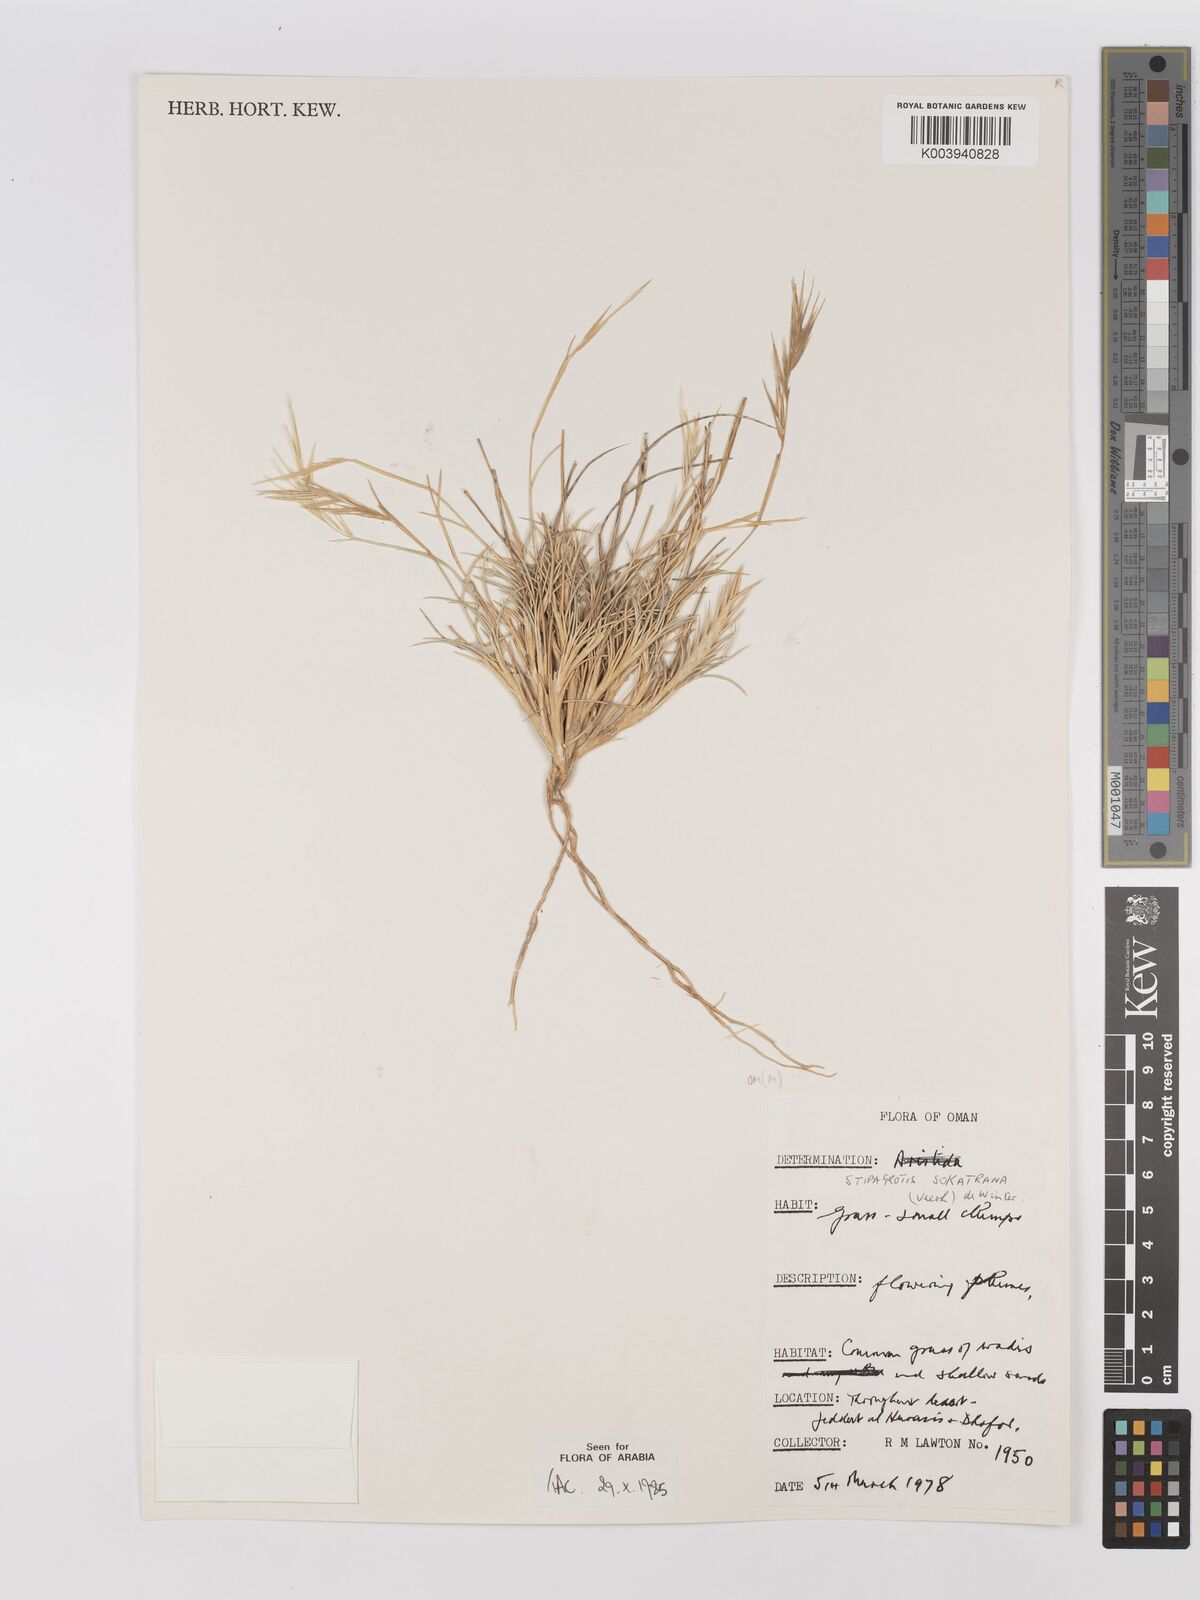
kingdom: Plantae
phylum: Tracheophyta
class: Liliopsida
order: Poales
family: Poaceae
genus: Stipagrostis
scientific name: Stipagrostis sokotrana
